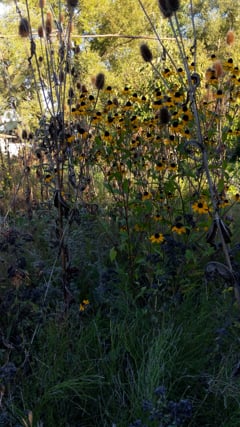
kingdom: Animalia
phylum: Arthropoda
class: Insecta
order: Orthoptera
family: Gryllidae
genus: Oecanthus
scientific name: Oecanthus pellucens
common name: Tree-cricket
